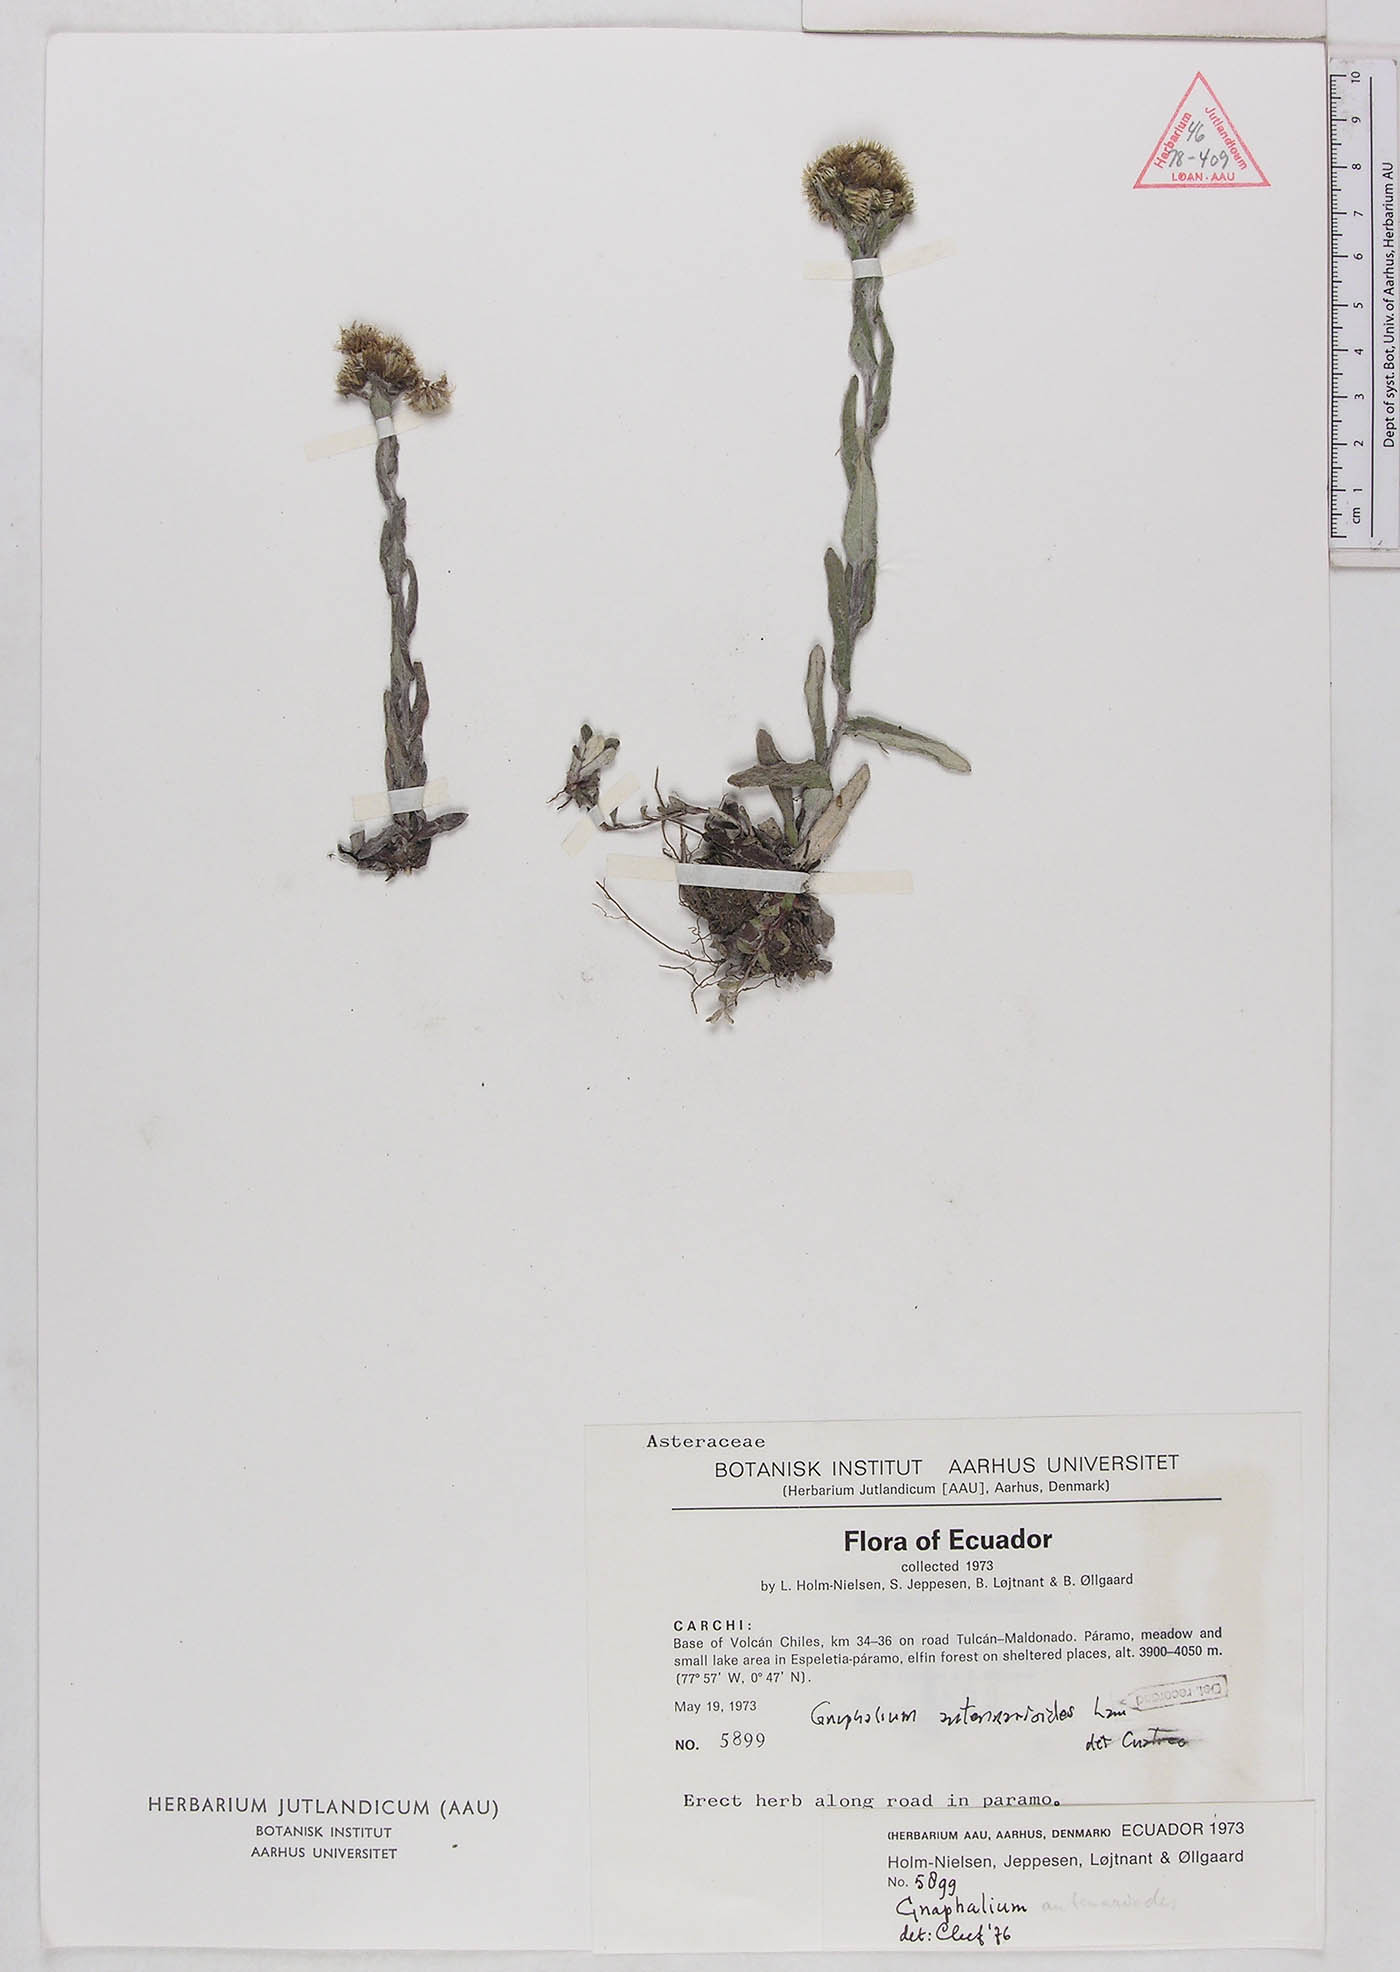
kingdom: Plantae
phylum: Tracheophyta
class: Magnoliopsida
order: Asterales
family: Asteraceae
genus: Chryselium
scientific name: Chryselium gnaphalioides
